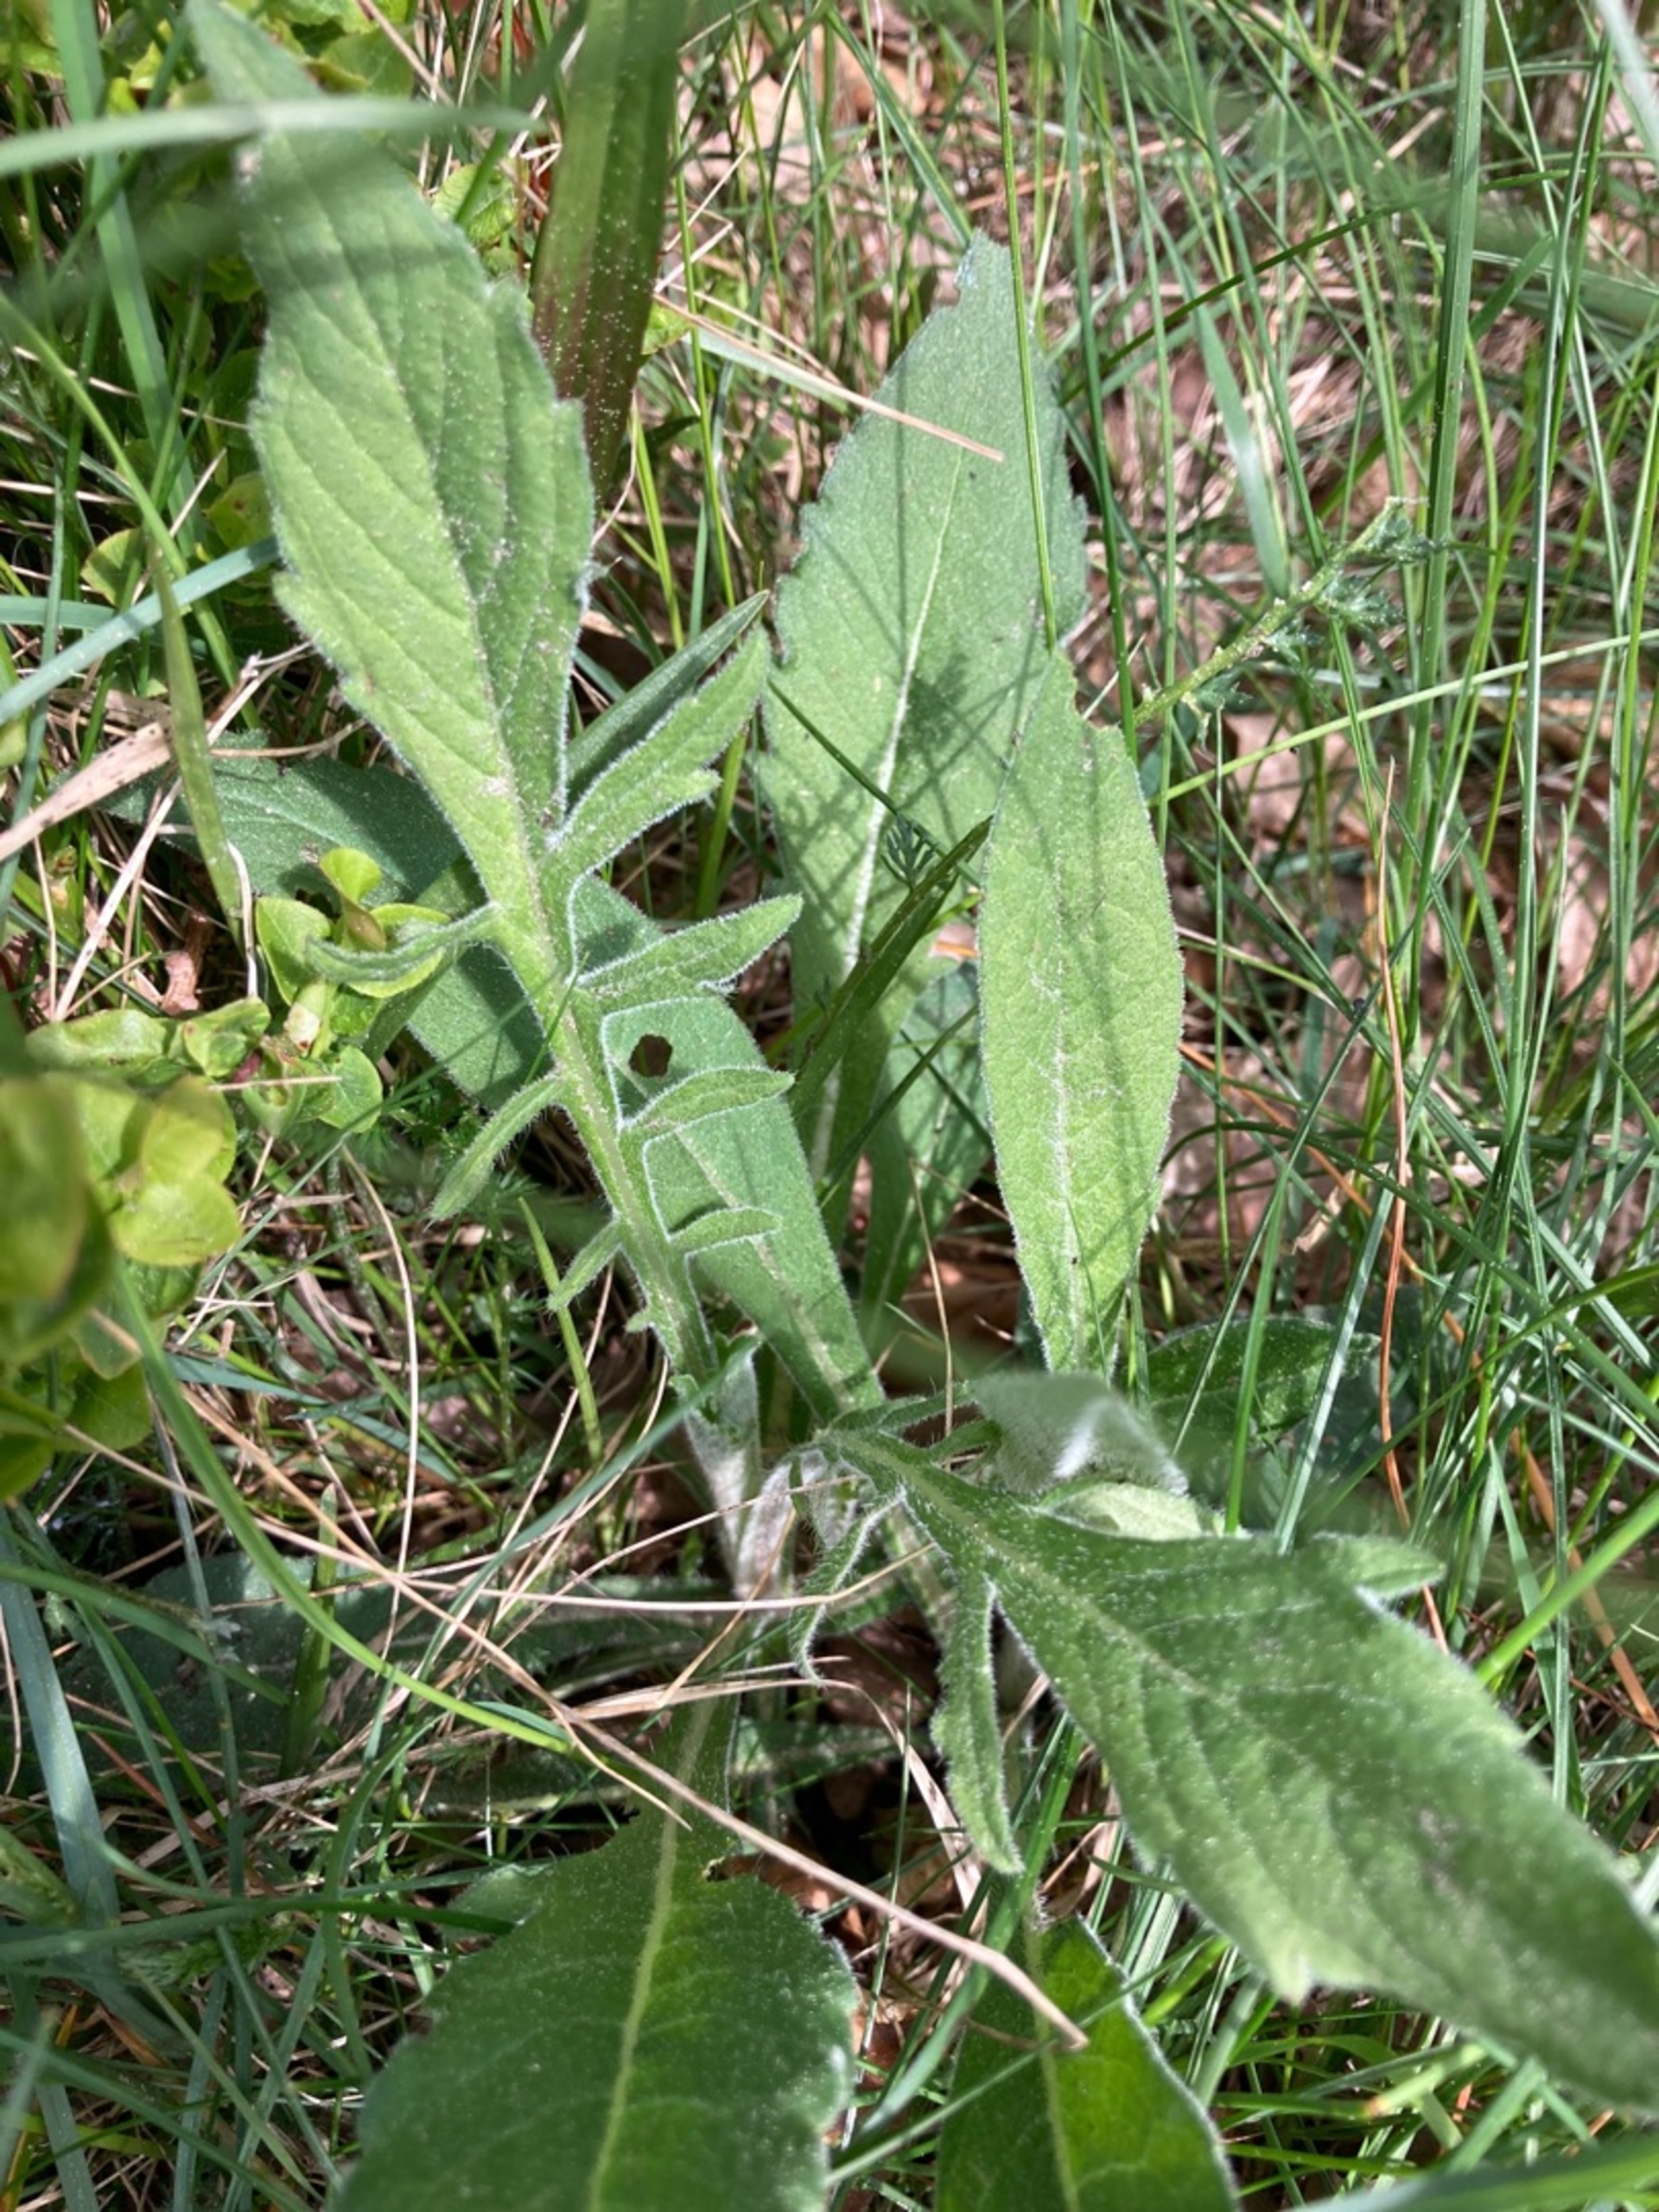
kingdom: Plantae
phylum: Tracheophyta
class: Magnoliopsida
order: Dipsacales
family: Caprifoliaceae
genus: Knautia
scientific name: Knautia arvensis
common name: Blåhat
